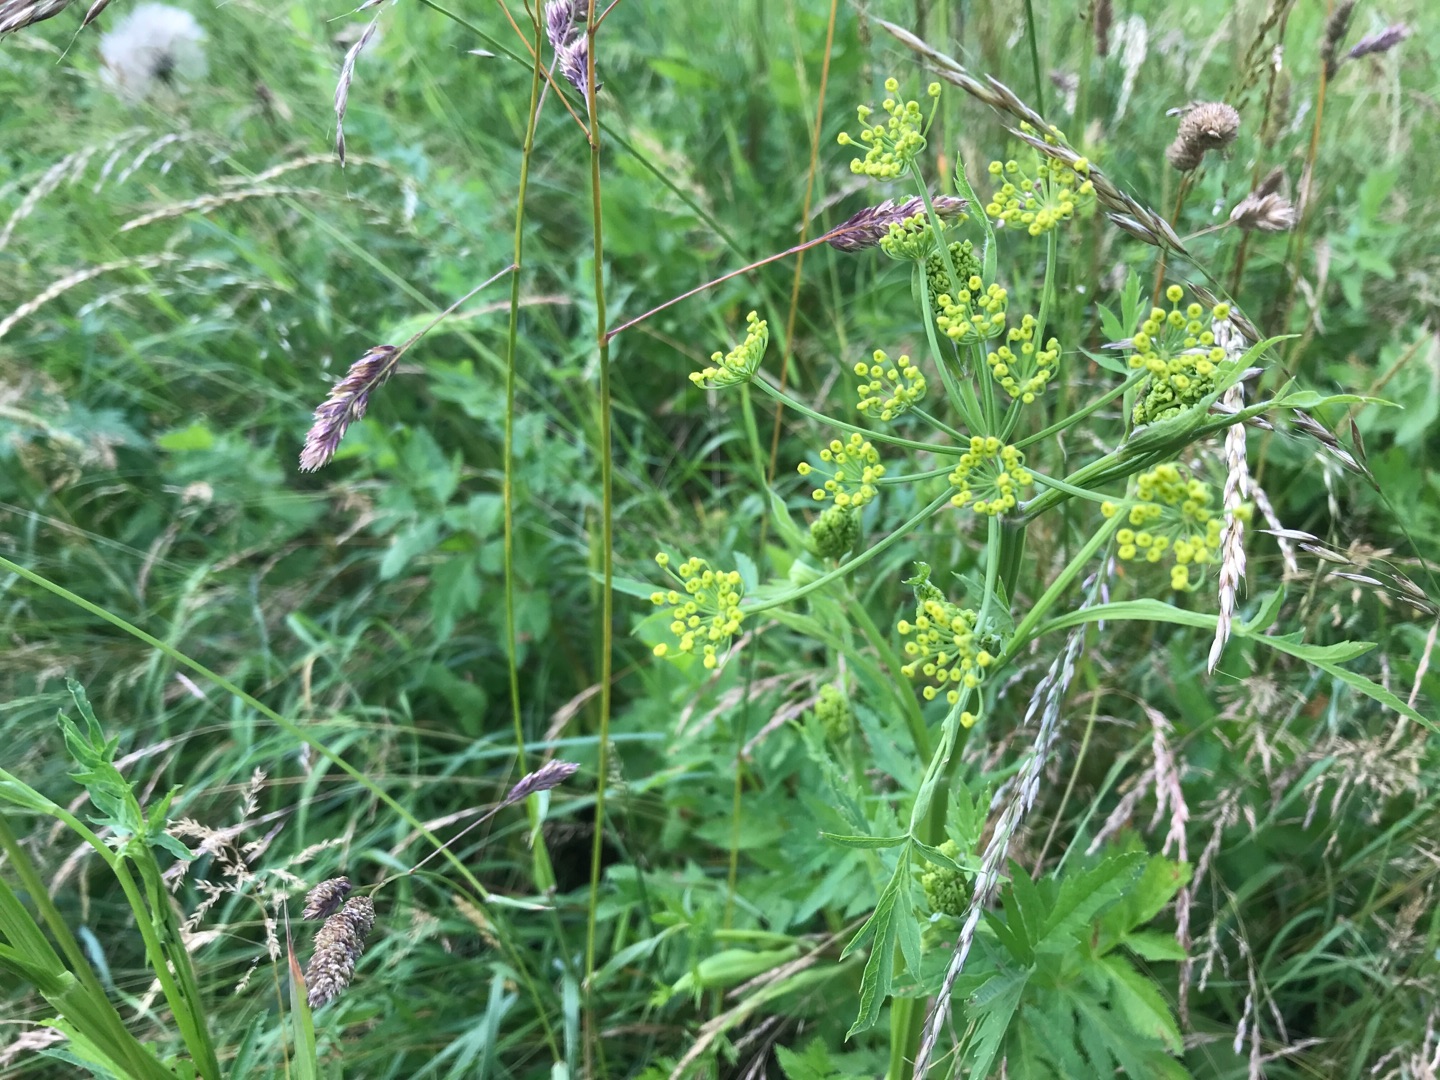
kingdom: Plantae
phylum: Tracheophyta
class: Magnoliopsida
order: Apiales
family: Apiaceae
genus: Pastinaca
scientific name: Pastinaca sativa
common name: Pastinak
